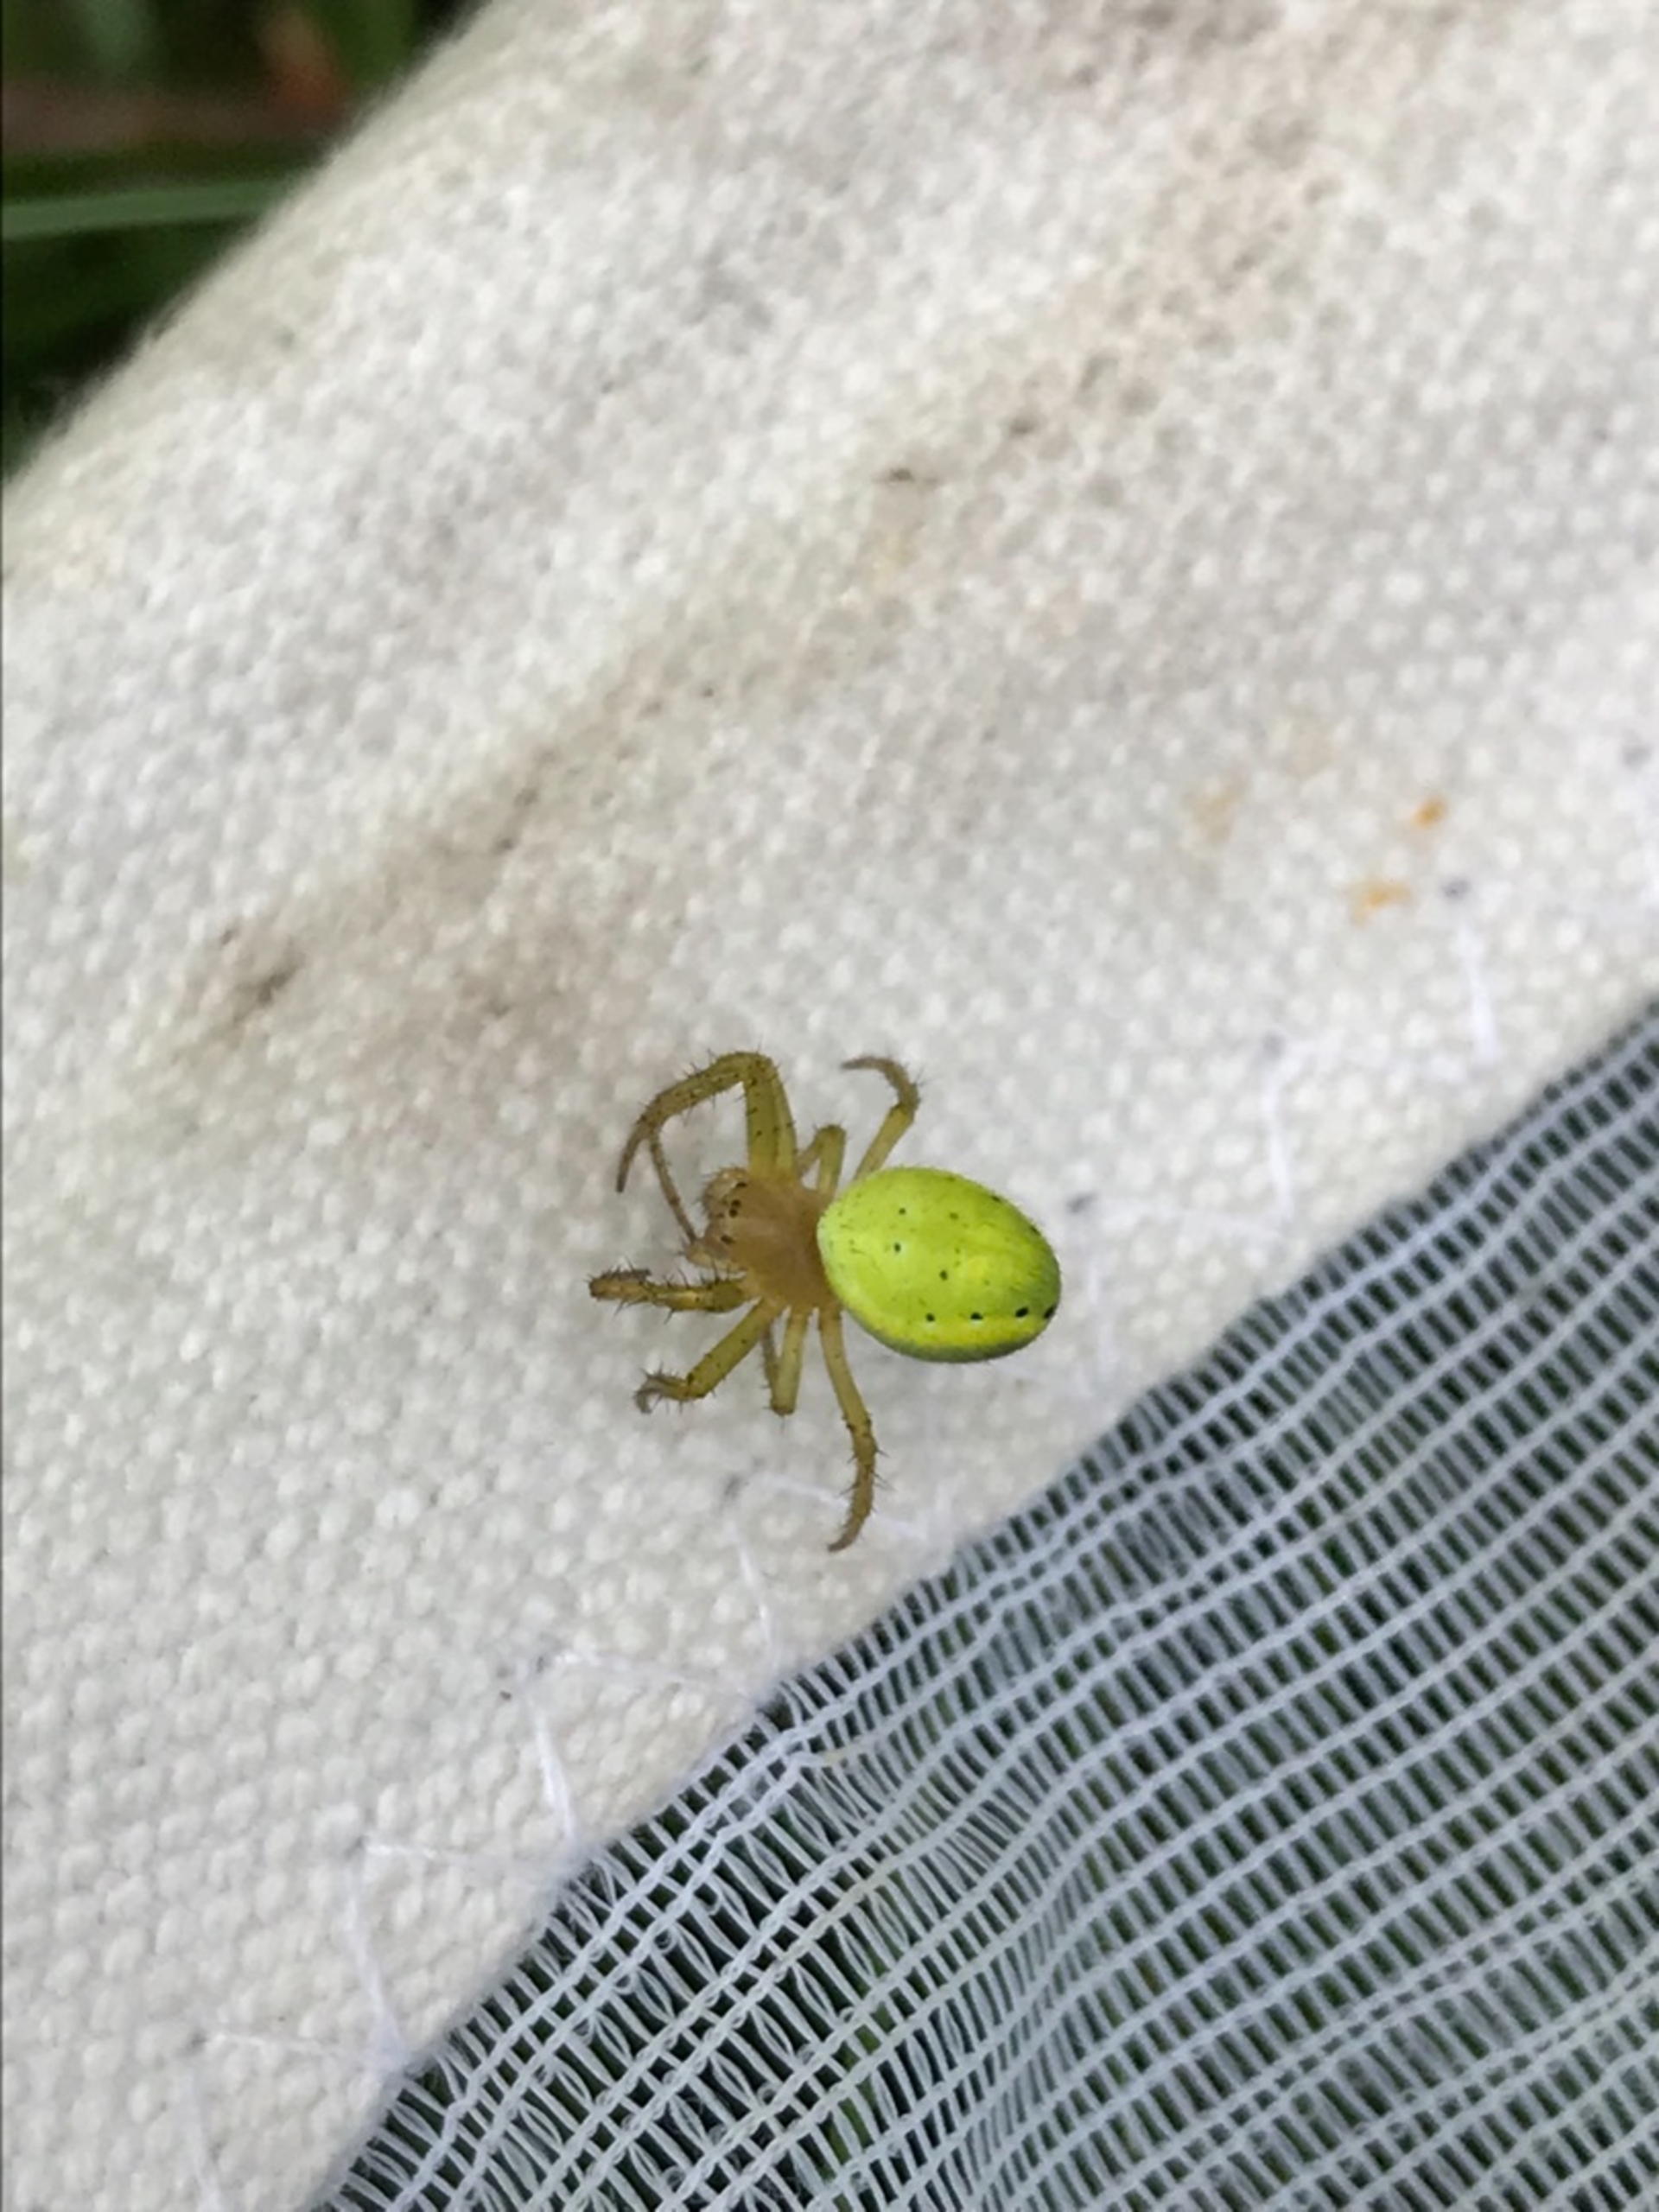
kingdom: Animalia
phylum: Arthropoda
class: Arachnida
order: Araneae
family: Araneidae
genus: Araniella
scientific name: Araniella
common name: Agurkeedderkopslægten
